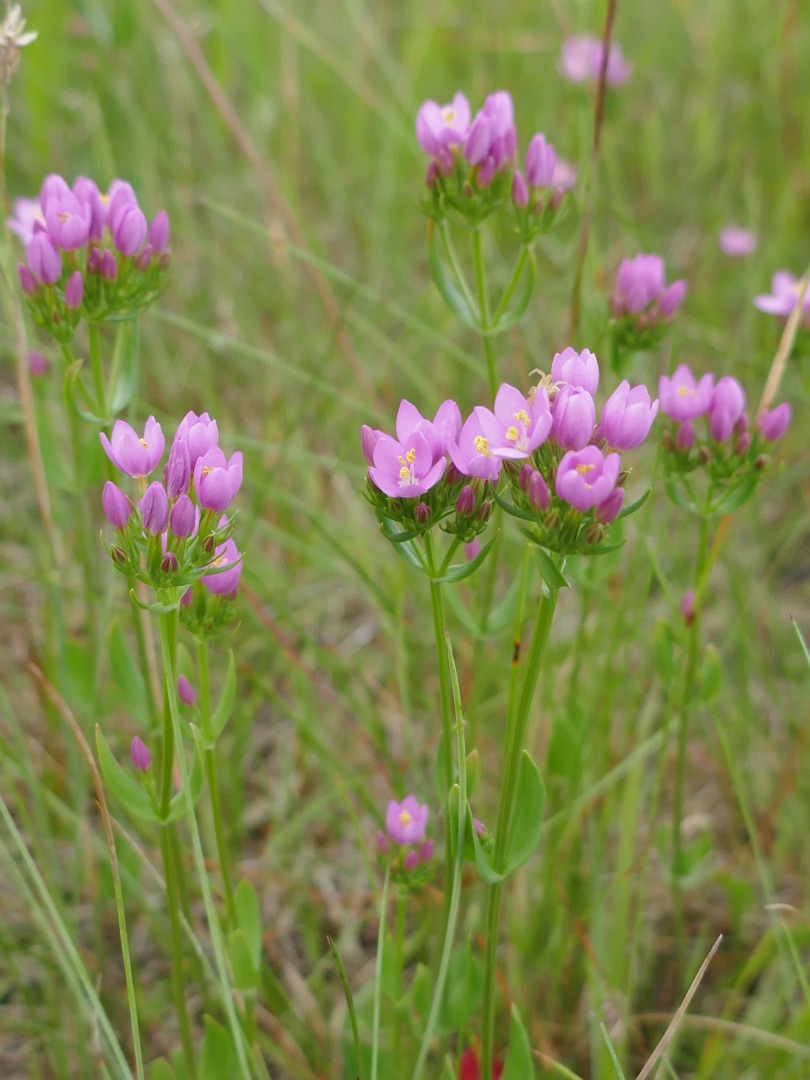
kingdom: Plantae
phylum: Tracheophyta
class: Magnoliopsida
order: Gentianales
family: Gentianaceae
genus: Centaurium
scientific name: Centaurium erythraea
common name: Mark-tusindgylden
